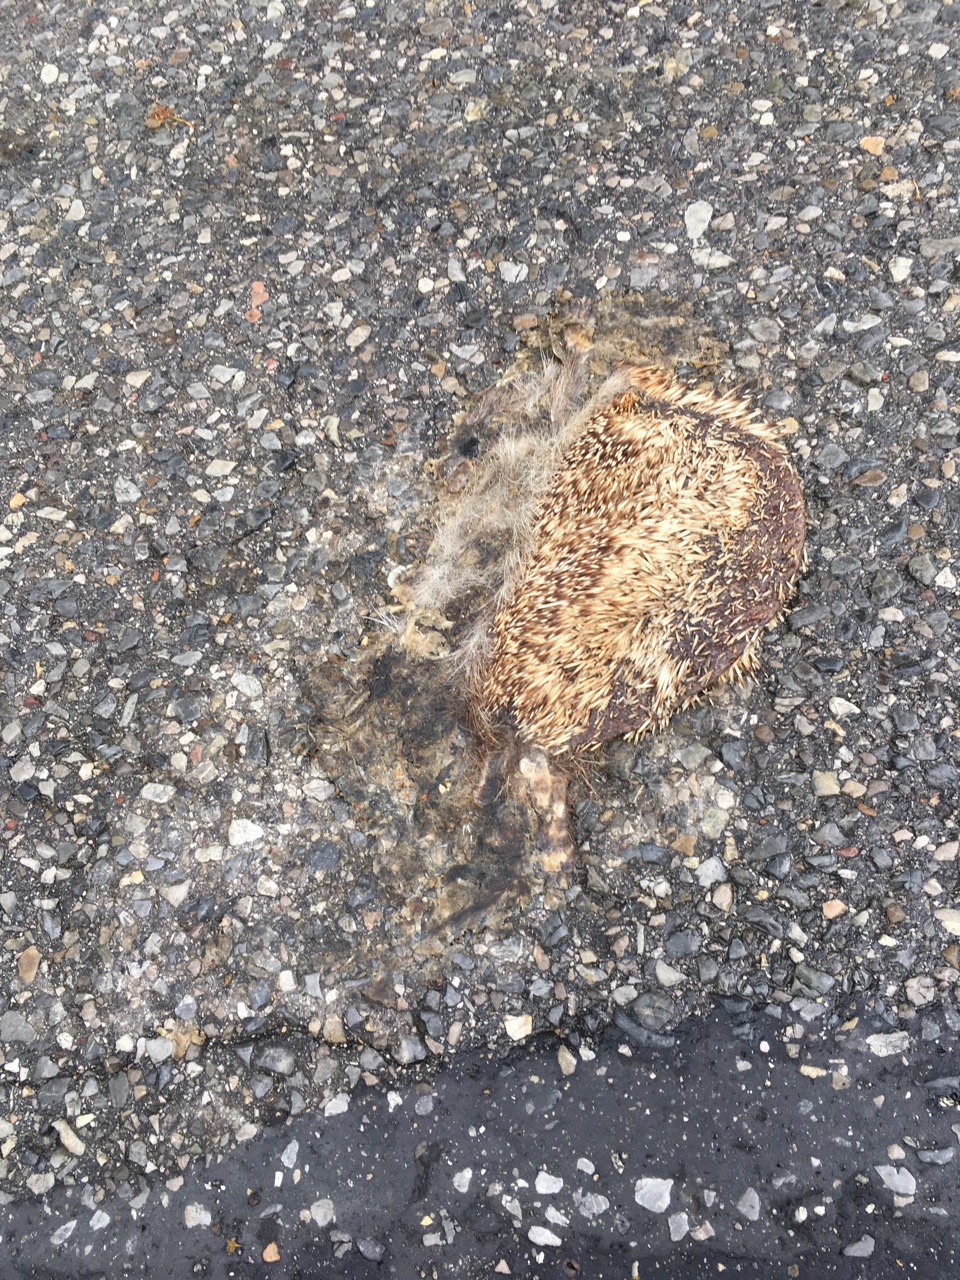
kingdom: Animalia
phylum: Chordata
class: Mammalia
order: Erinaceomorpha
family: Erinaceidae
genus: Erinaceus
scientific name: Erinaceus
